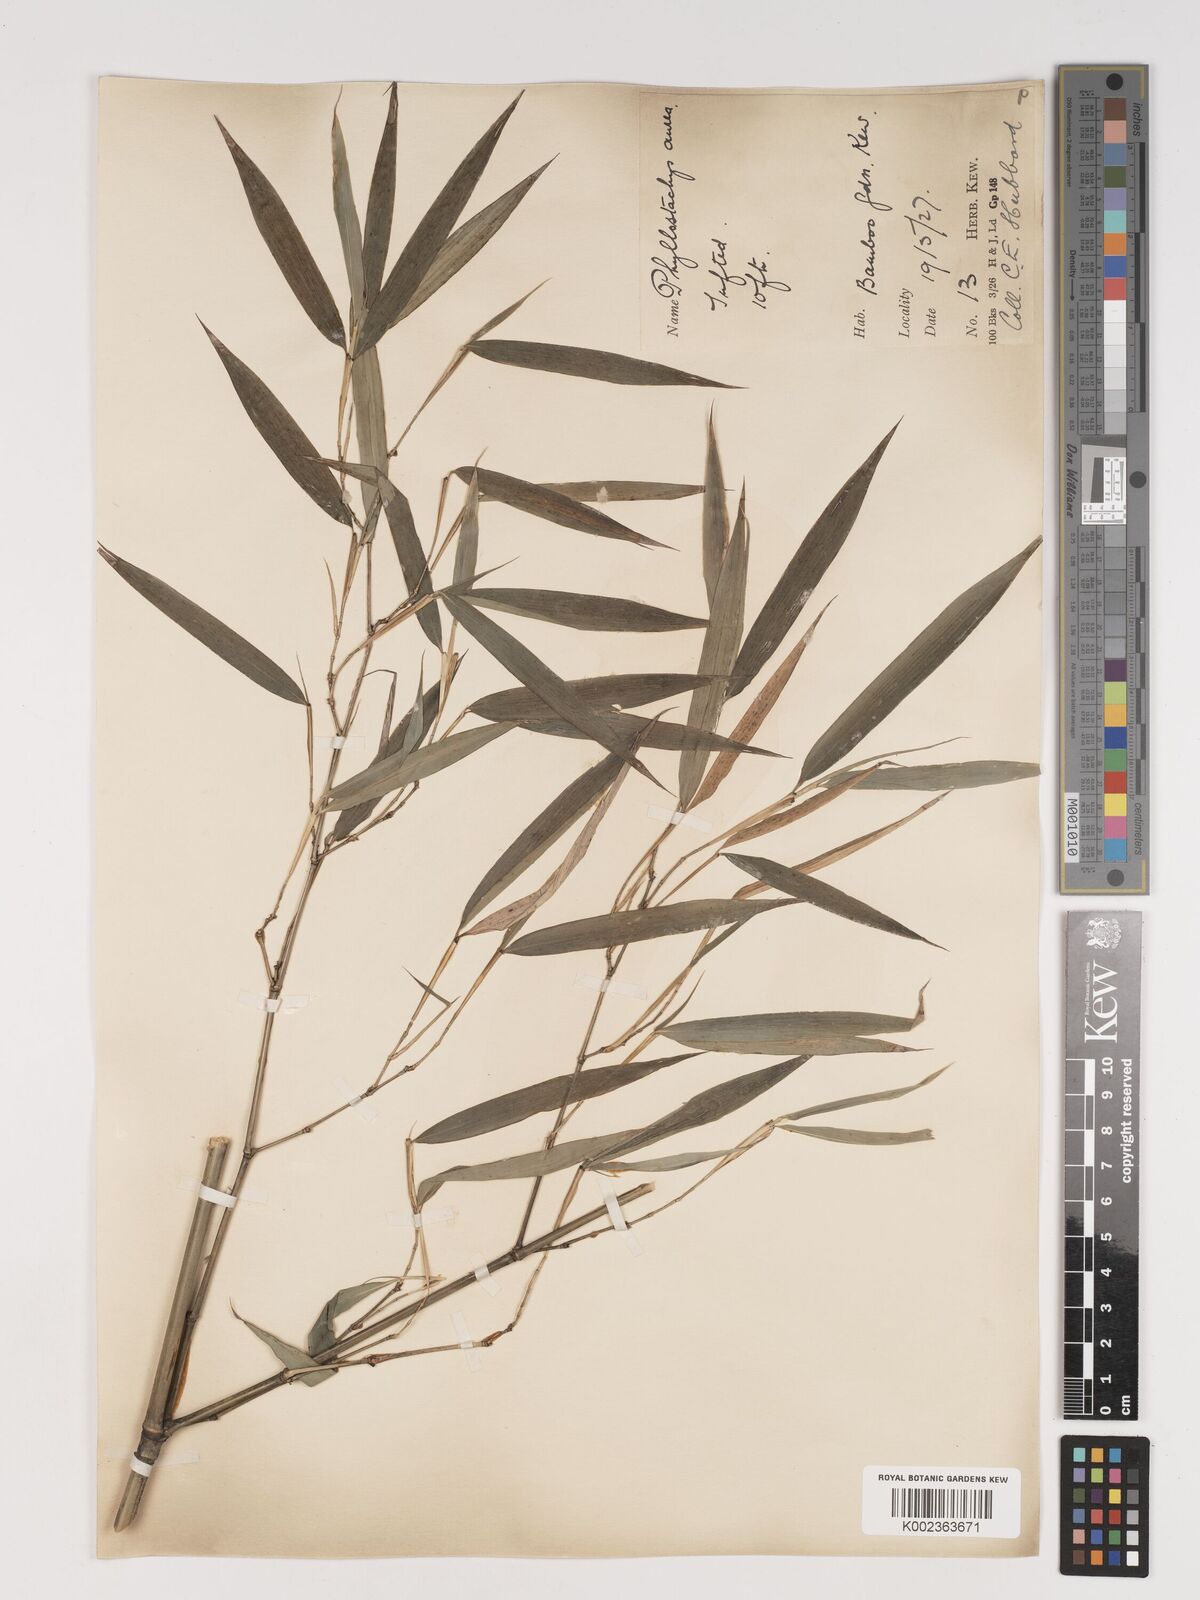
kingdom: Plantae
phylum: Tracheophyta
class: Liliopsida
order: Poales
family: Poaceae
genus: Phyllostachys
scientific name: Phyllostachys aurea
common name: Golden bamboo
